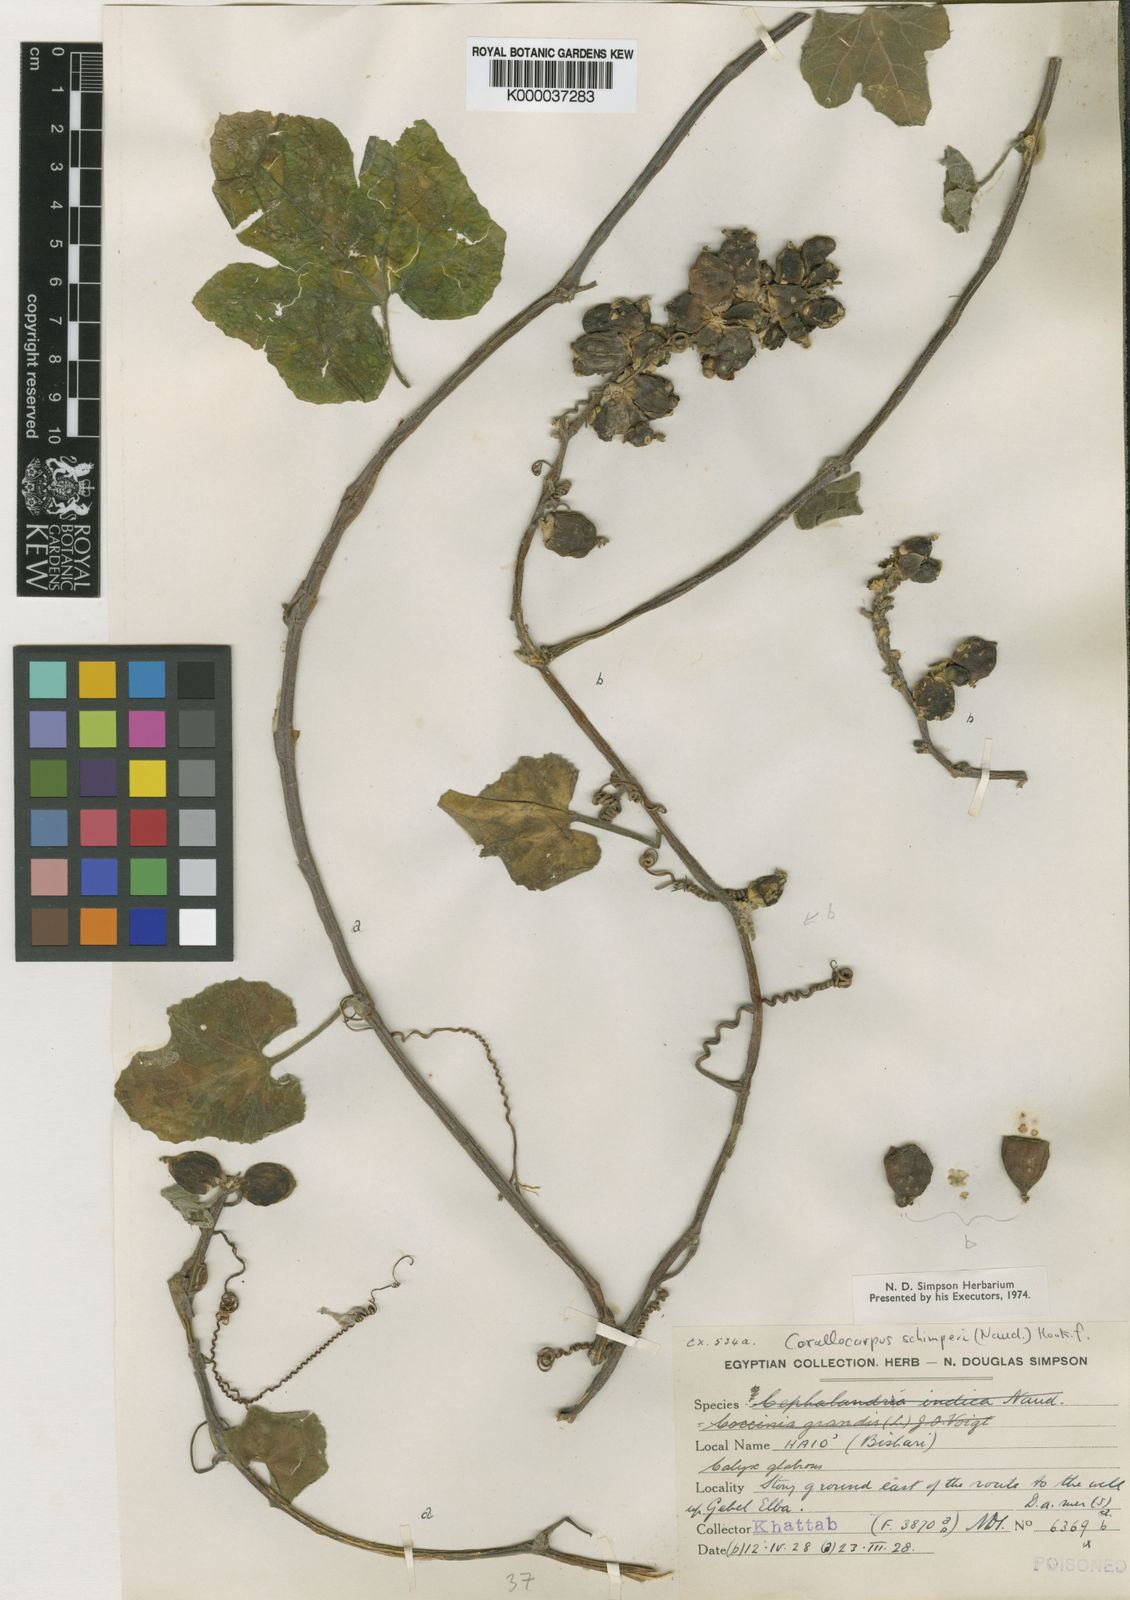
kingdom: Plantae
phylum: Tracheophyta
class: Magnoliopsida
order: Cucurbitales
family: Cucurbitaceae
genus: Corallocarpus
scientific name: Corallocarpus schimperi
